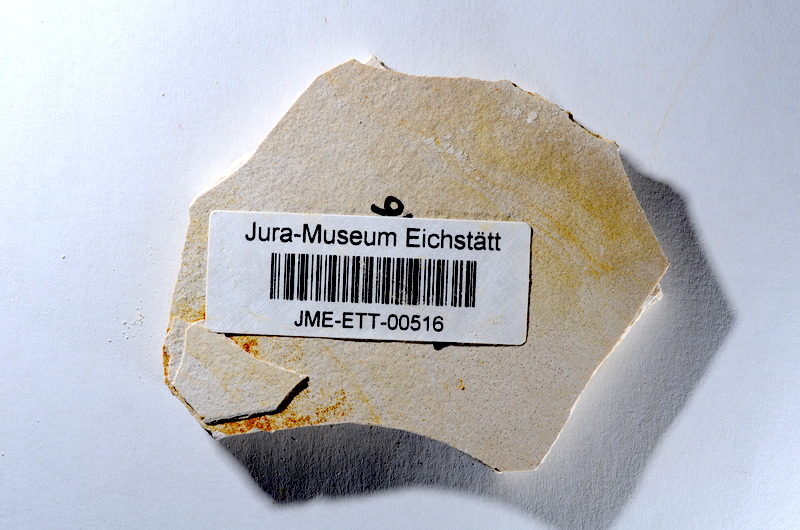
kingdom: Animalia
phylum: Chordata
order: Salmoniformes
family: Orthogonikleithridae
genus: Orthogonikleithrus
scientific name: Orthogonikleithrus hoelli
